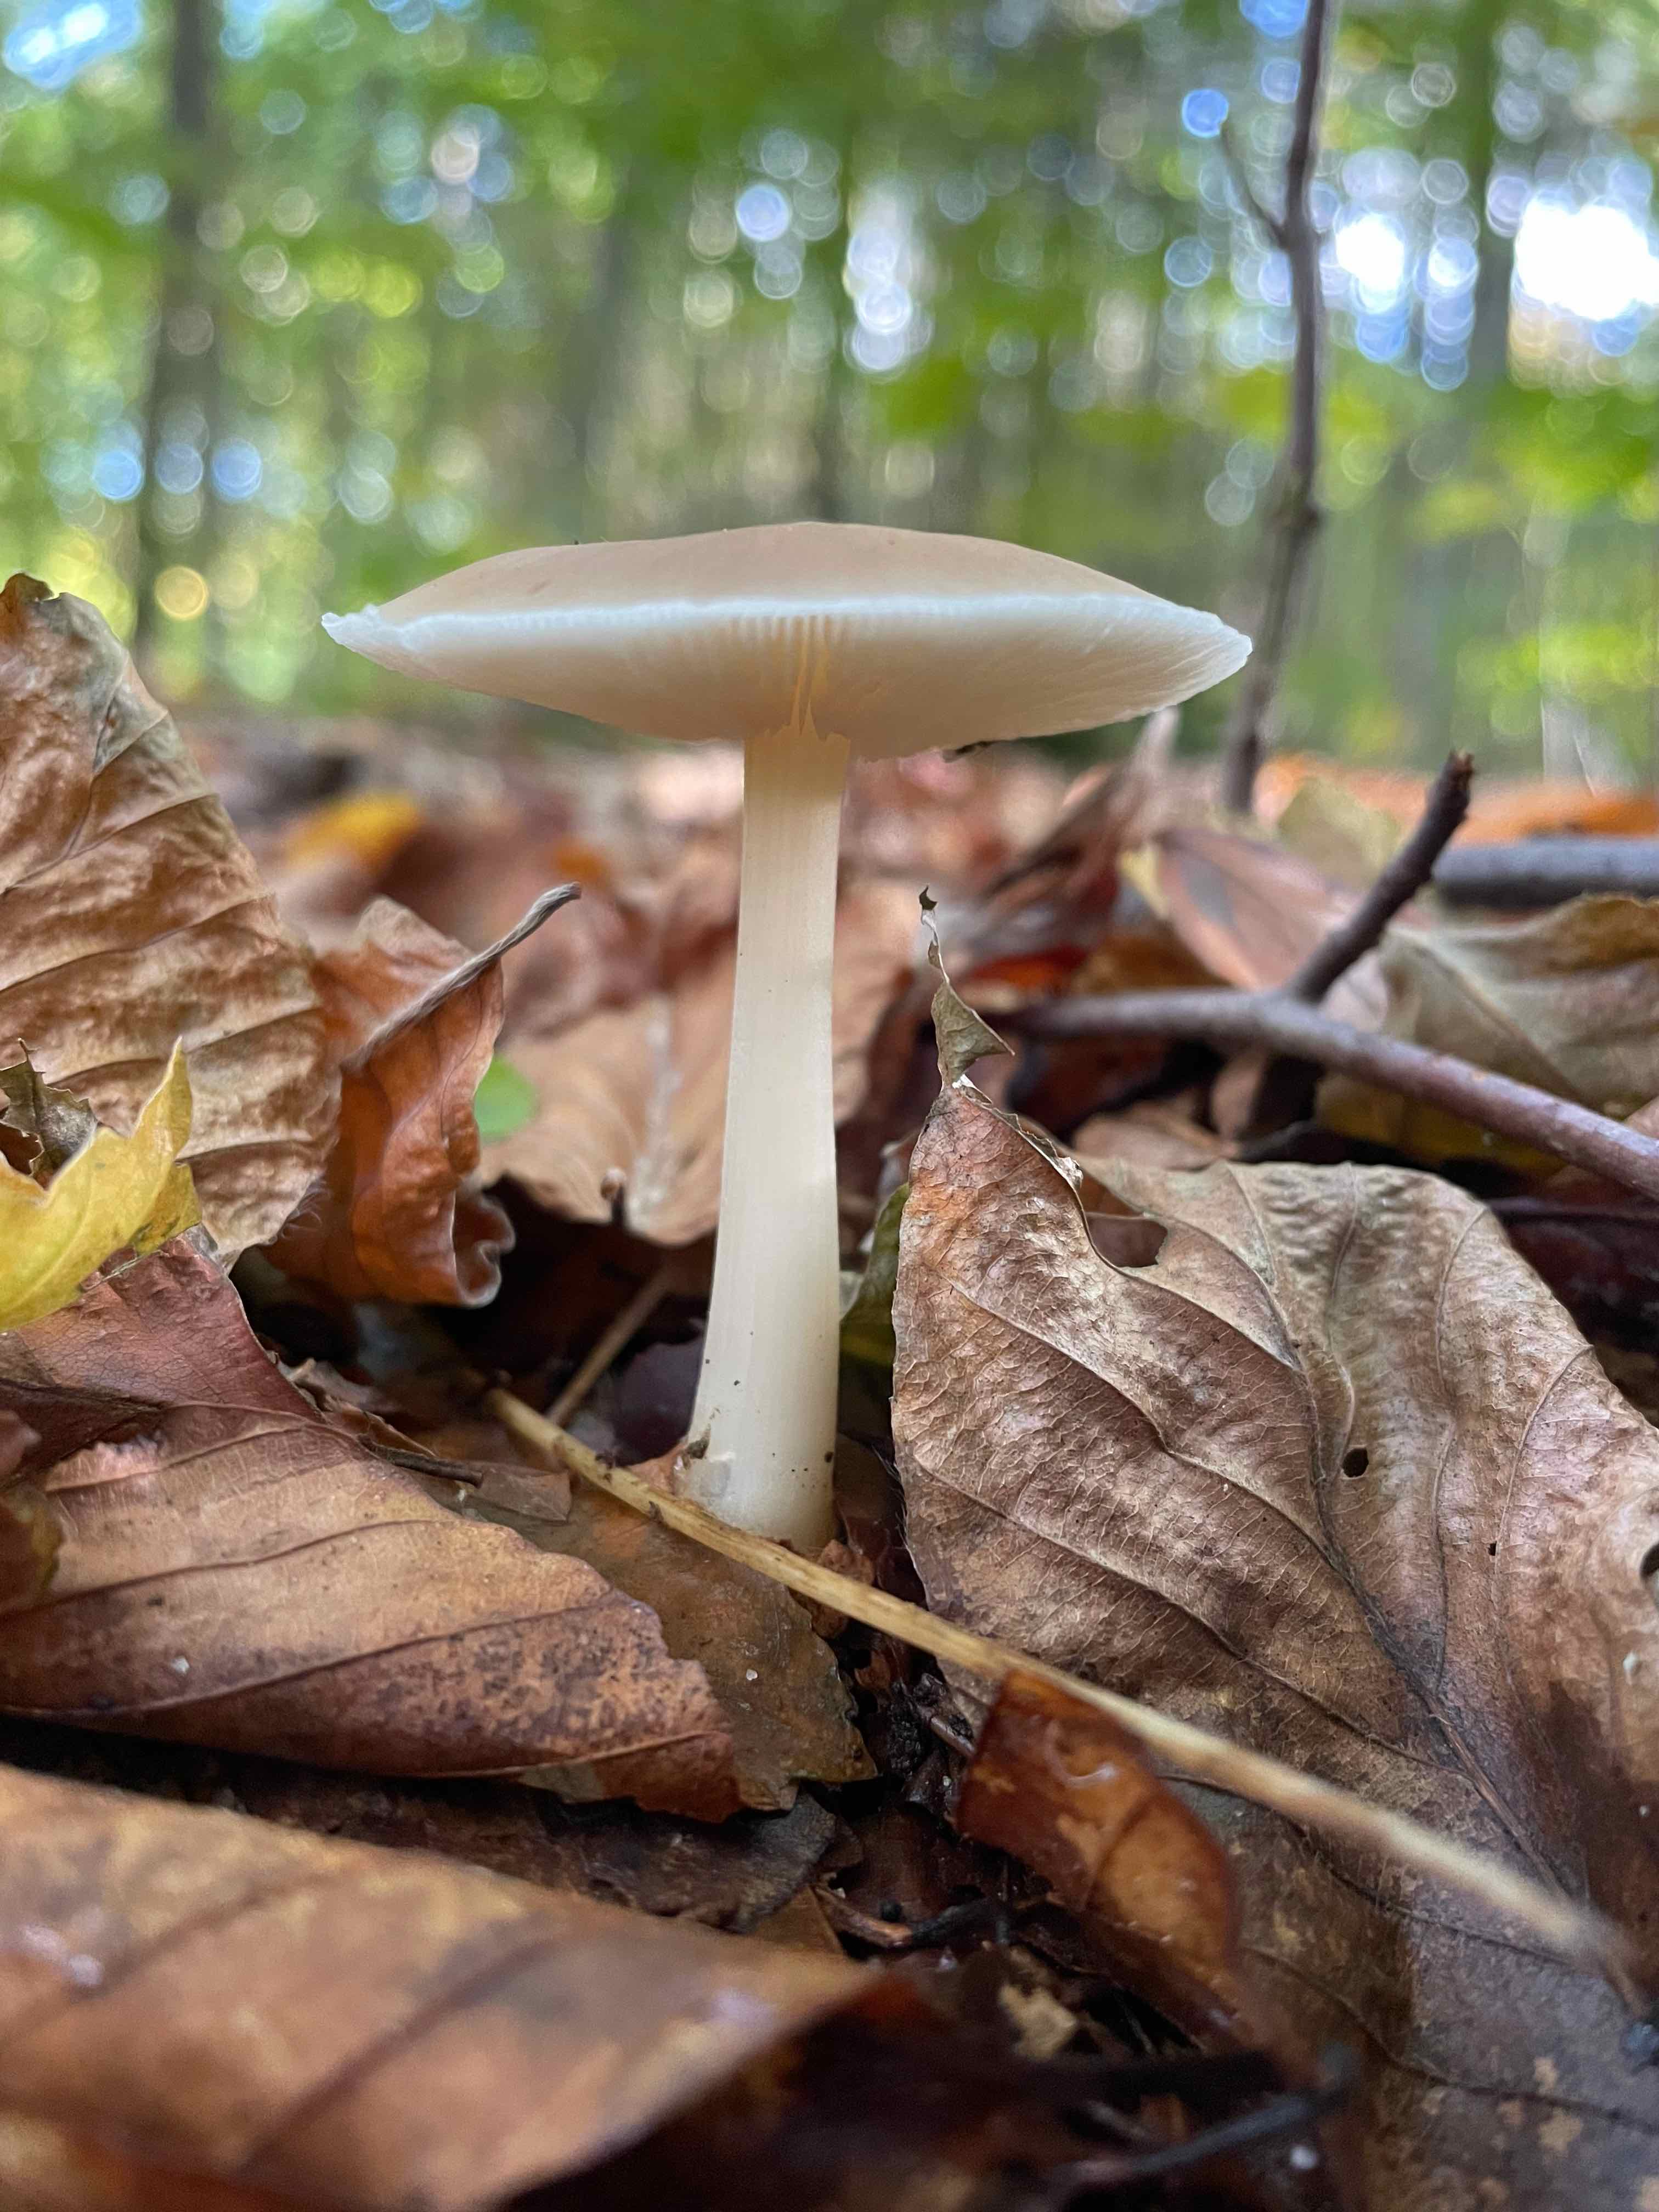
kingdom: Fungi
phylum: Basidiomycota
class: Agaricomycetes
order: Agaricales
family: Omphalotaceae
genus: Rhodocollybia
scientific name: Rhodocollybia asema
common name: horngrå fladhat
